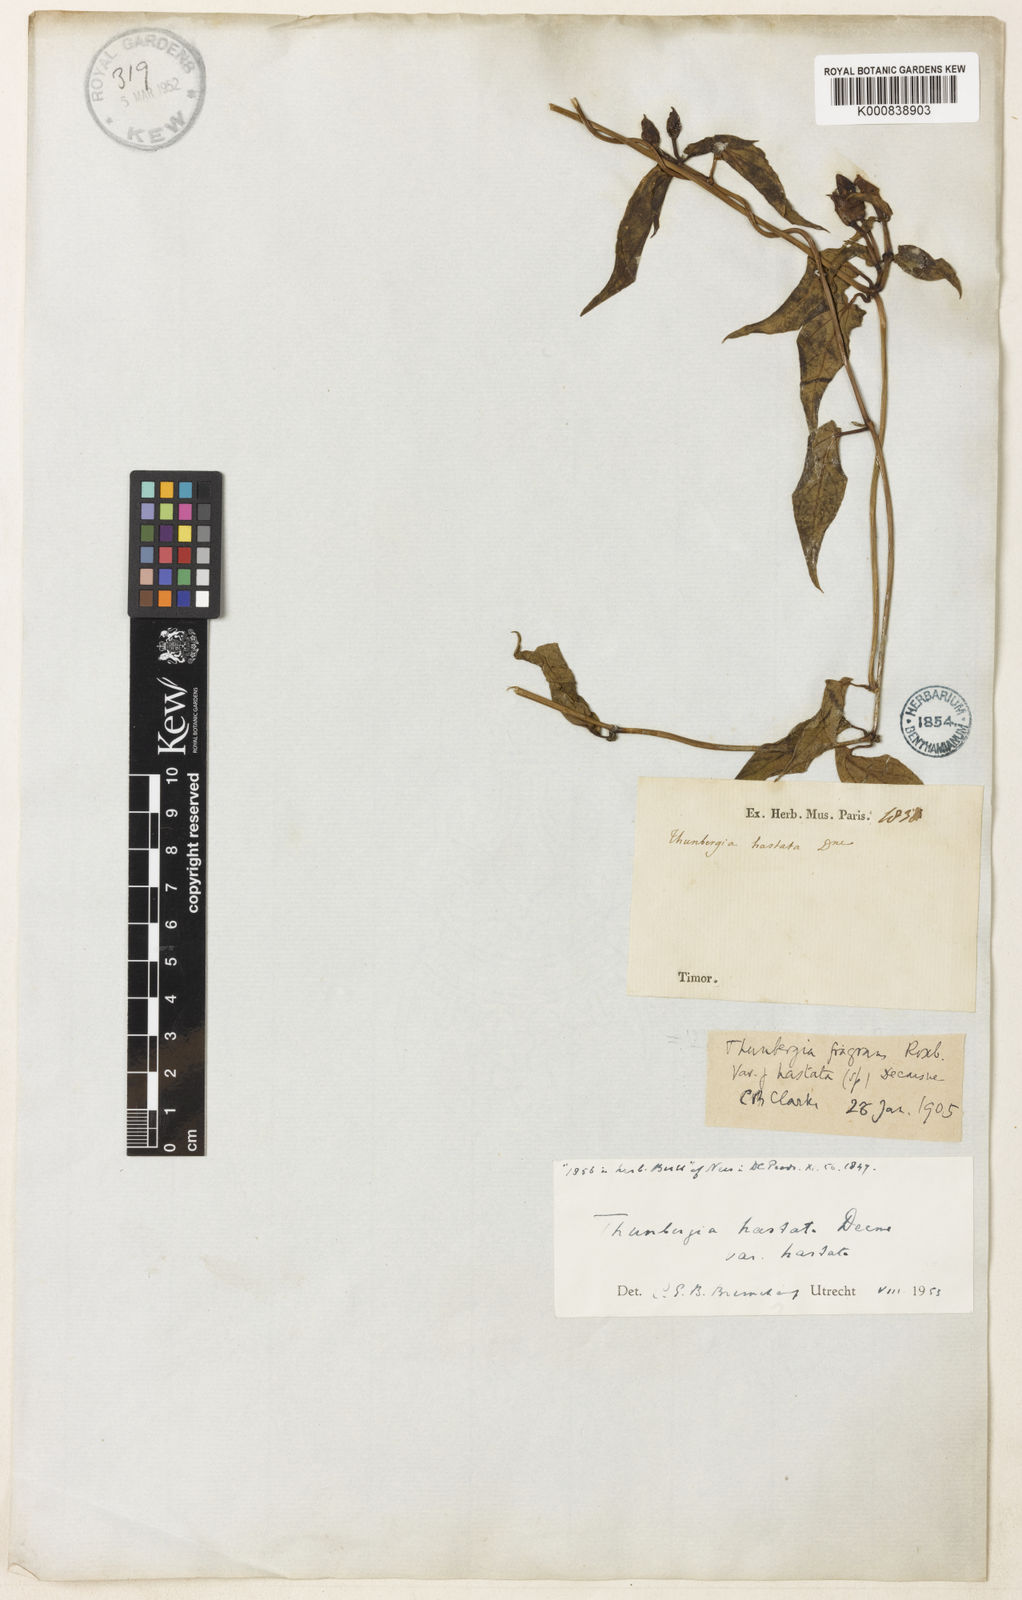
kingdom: Plantae
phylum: Tracheophyta
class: Magnoliopsida
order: Lamiales
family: Acanthaceae
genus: Thunbergia
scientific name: Thunbergia hastata
